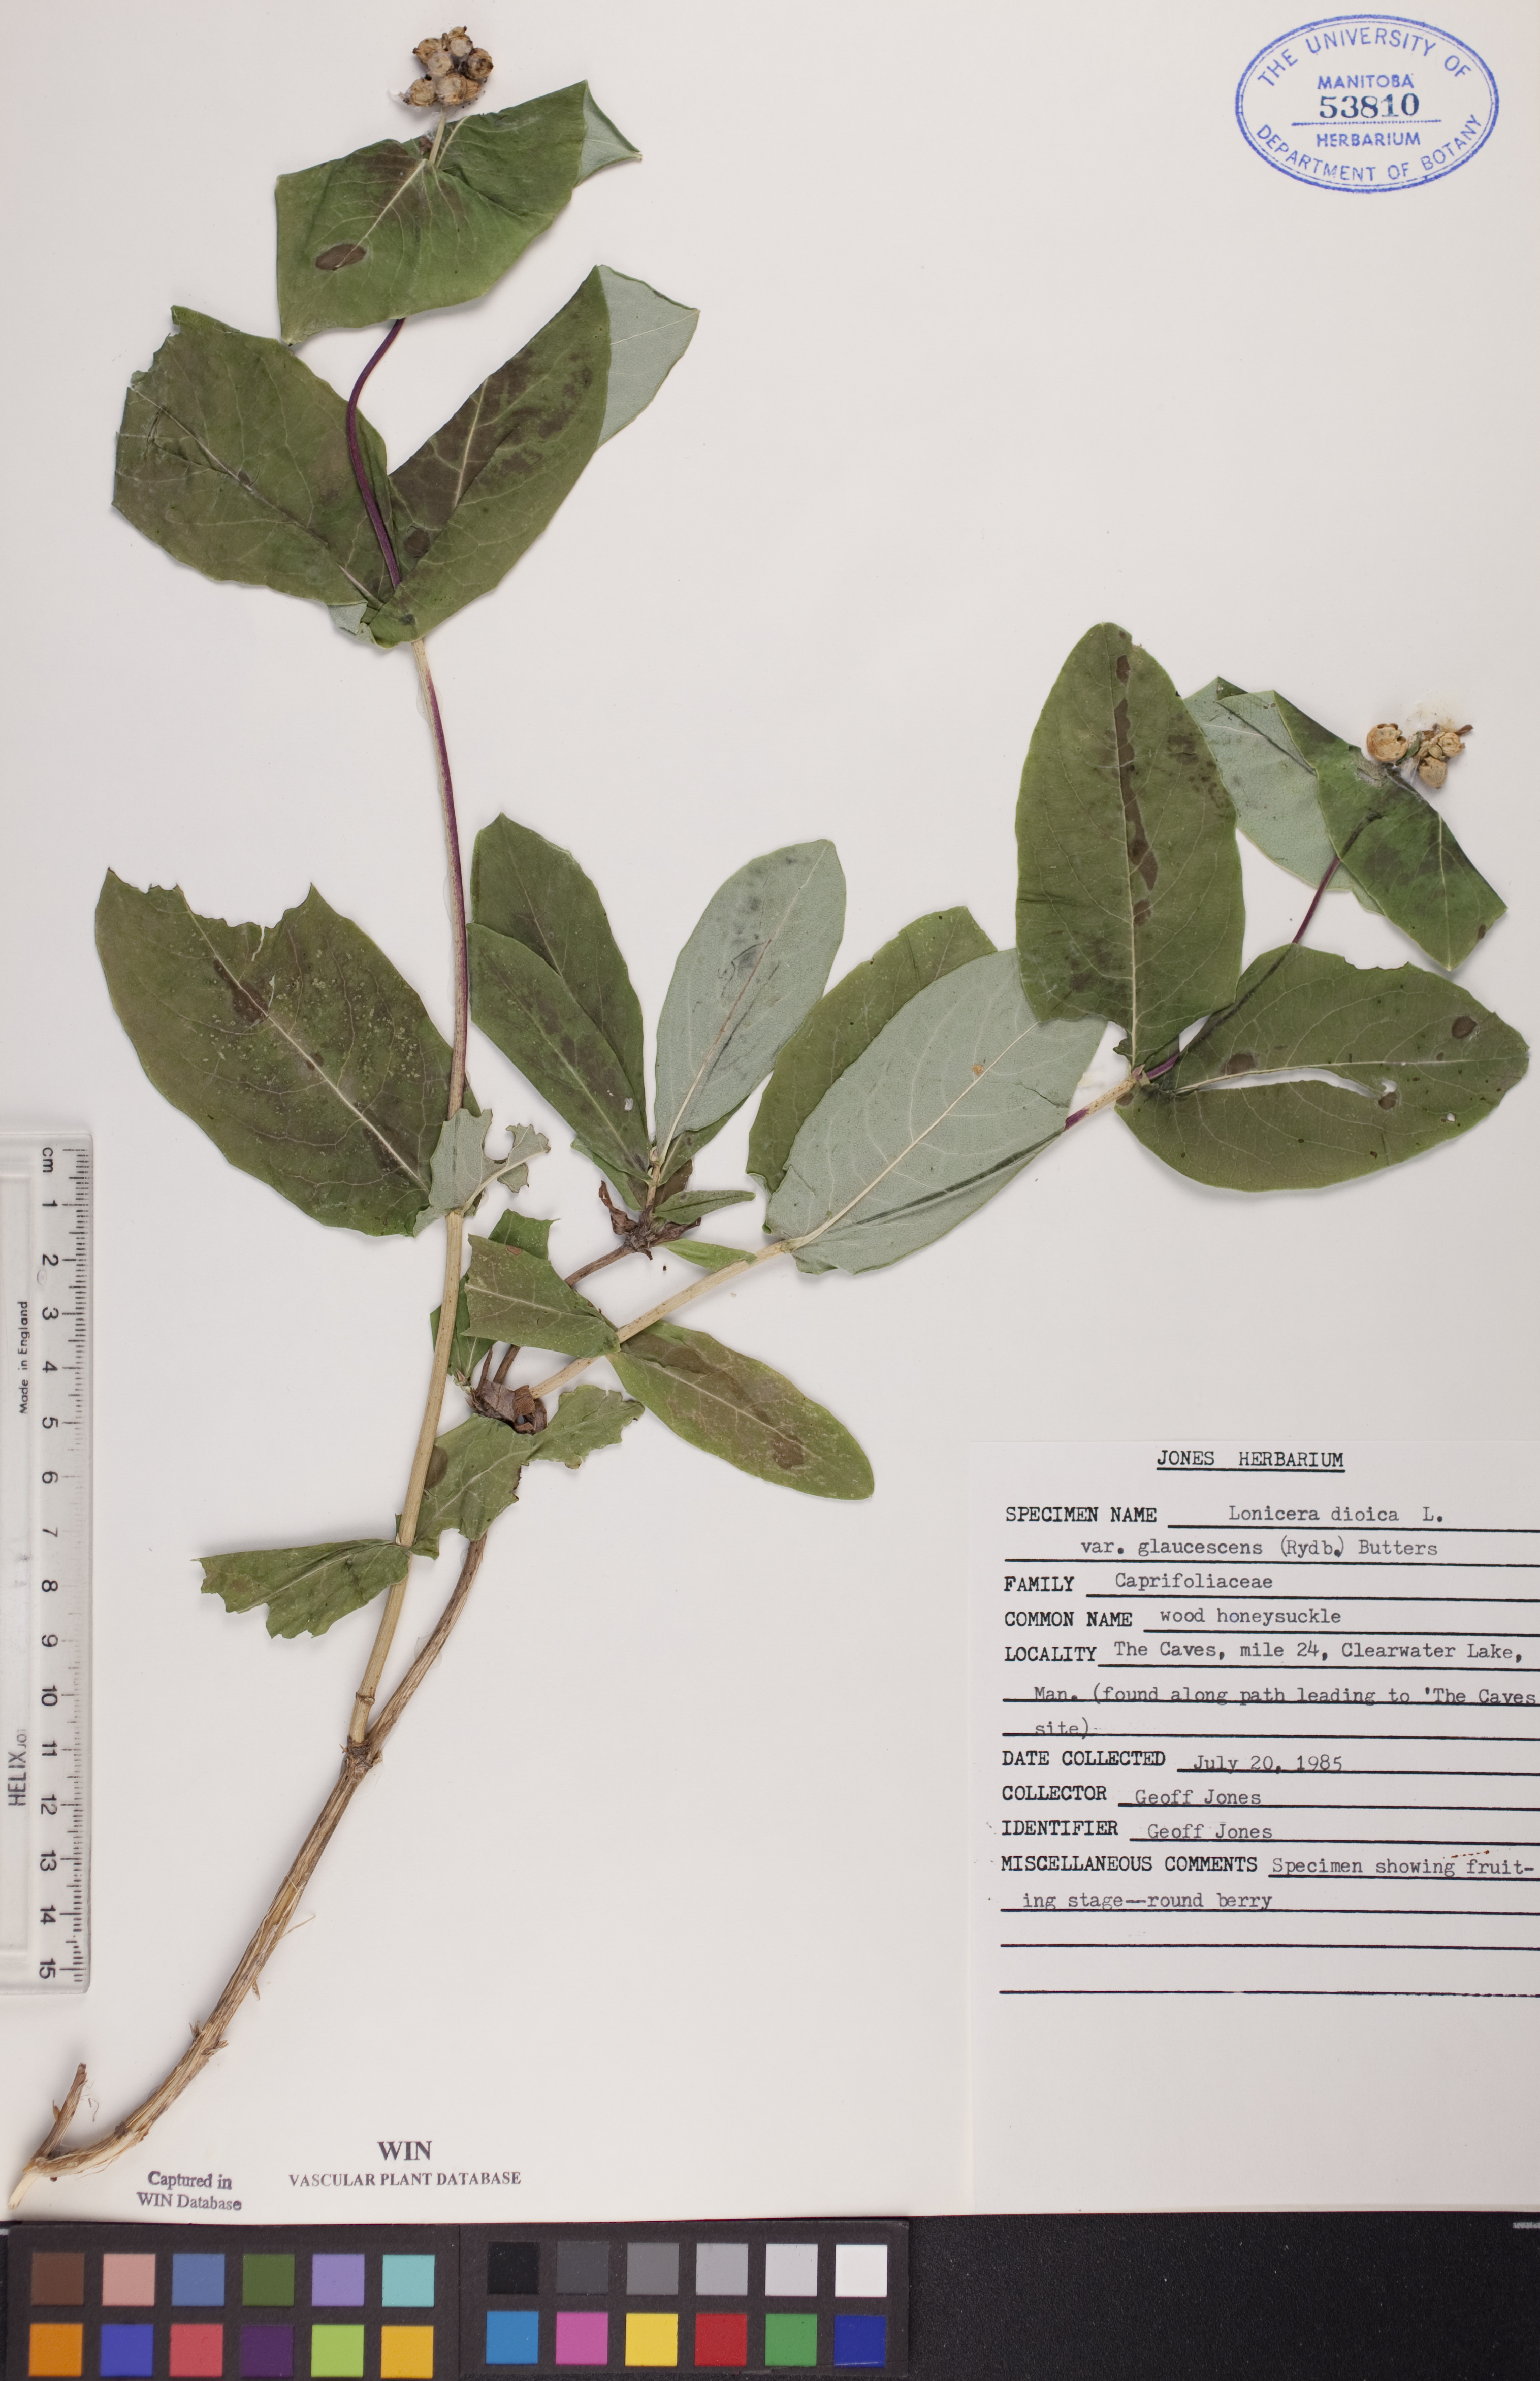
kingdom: Plantae
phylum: Tracheophyta
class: Magnoliopsida
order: Dipsacales
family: Caprifoliaceae
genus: Lonicera
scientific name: Lonicera dioica
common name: Limber honeysuckle
